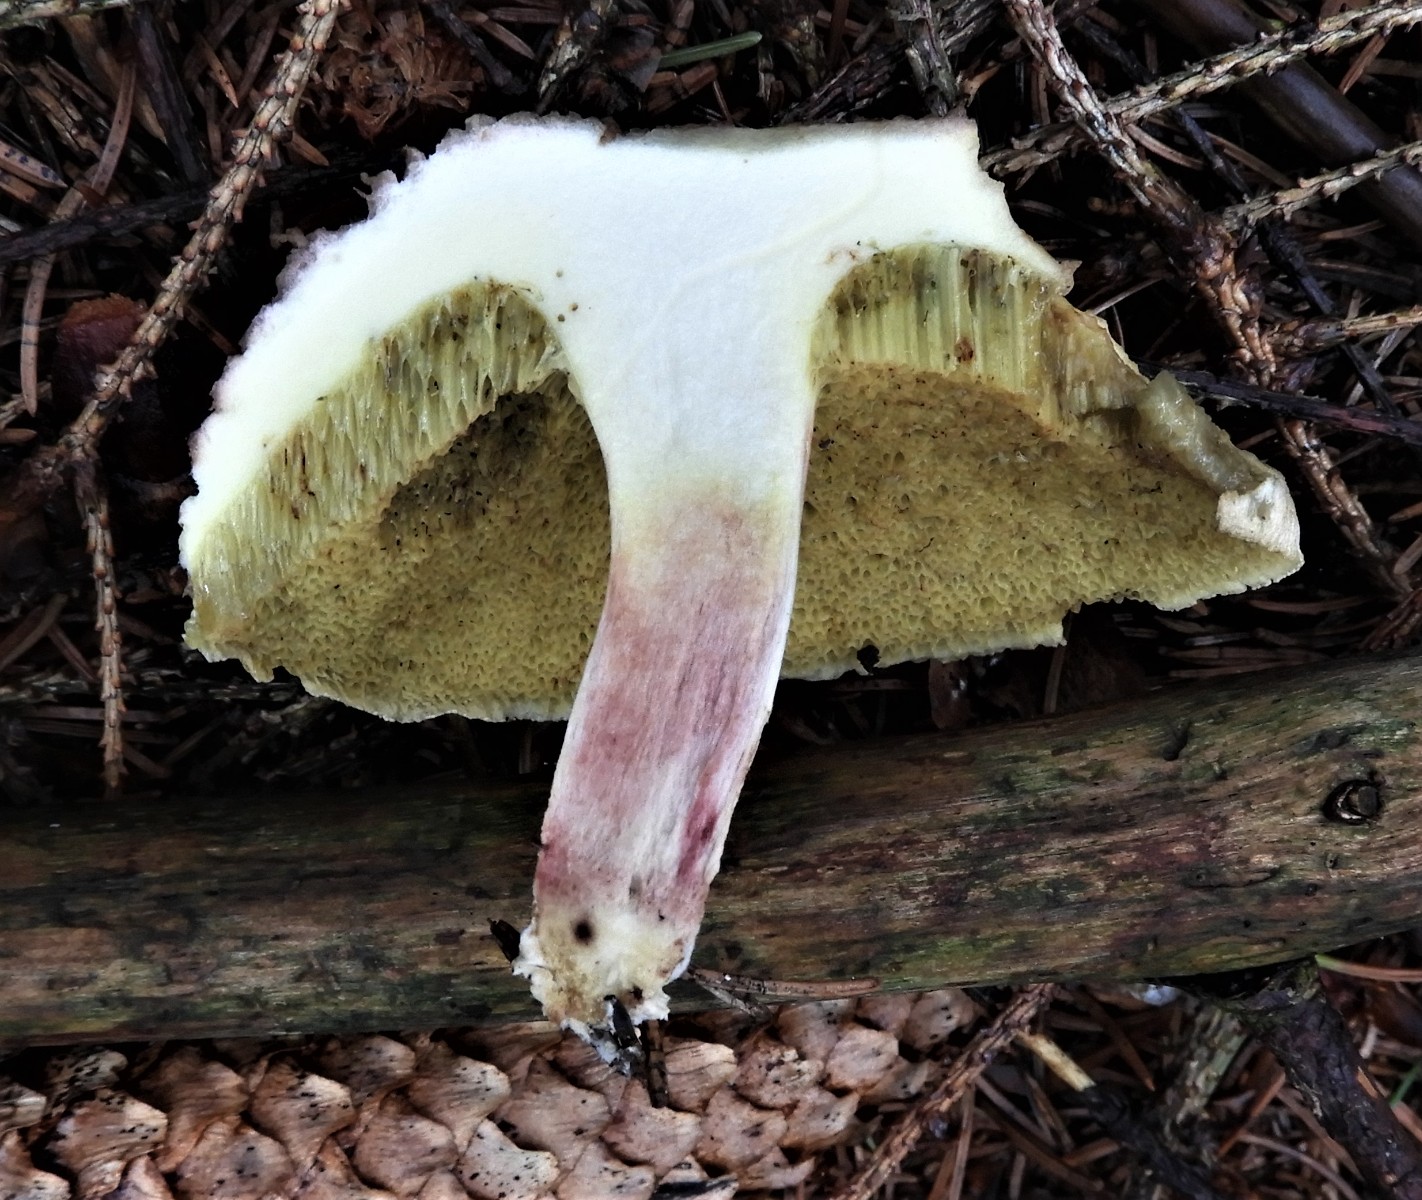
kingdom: Fungi
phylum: Basidiomycota
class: Agaricomycetes
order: Boletales
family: Boletaceae
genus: Xerocomellus
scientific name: Xerocomellus chrysenteron
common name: rødsprukken rørhat
